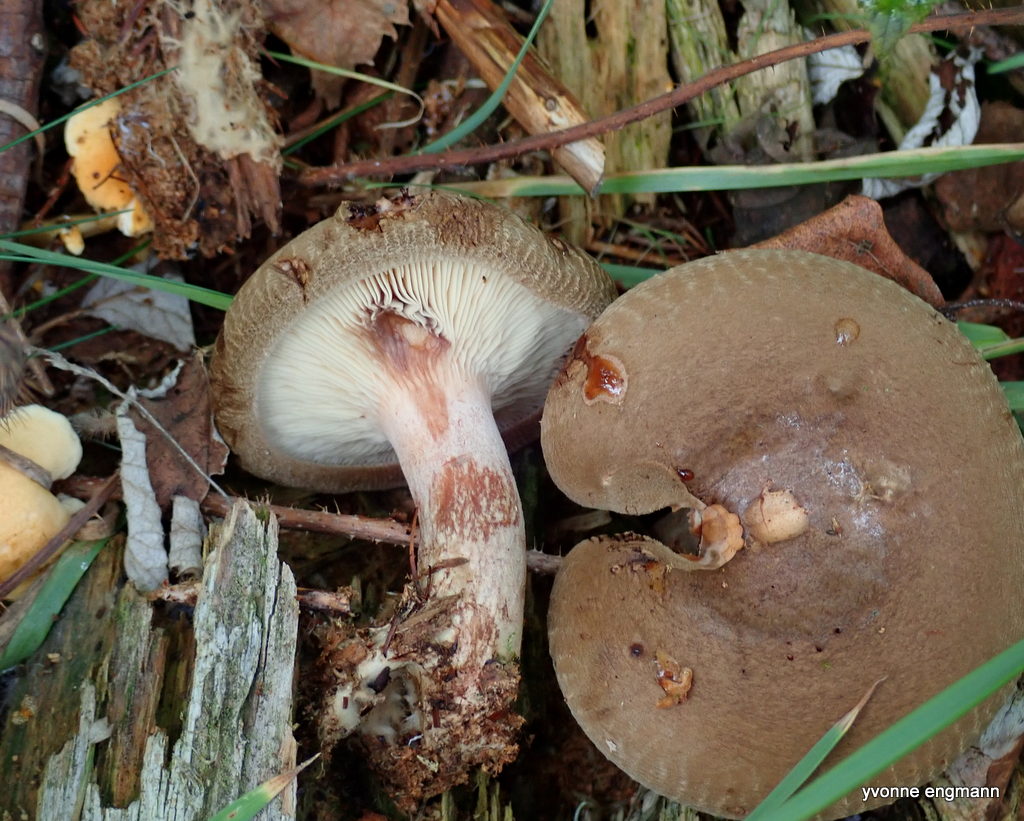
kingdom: Fungi
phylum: Basidiomycota
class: Agaricomycetes
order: Boletales
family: Paxillaceae
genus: Paxillus
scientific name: Paxillus involutus
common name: almindelig netbladhat
